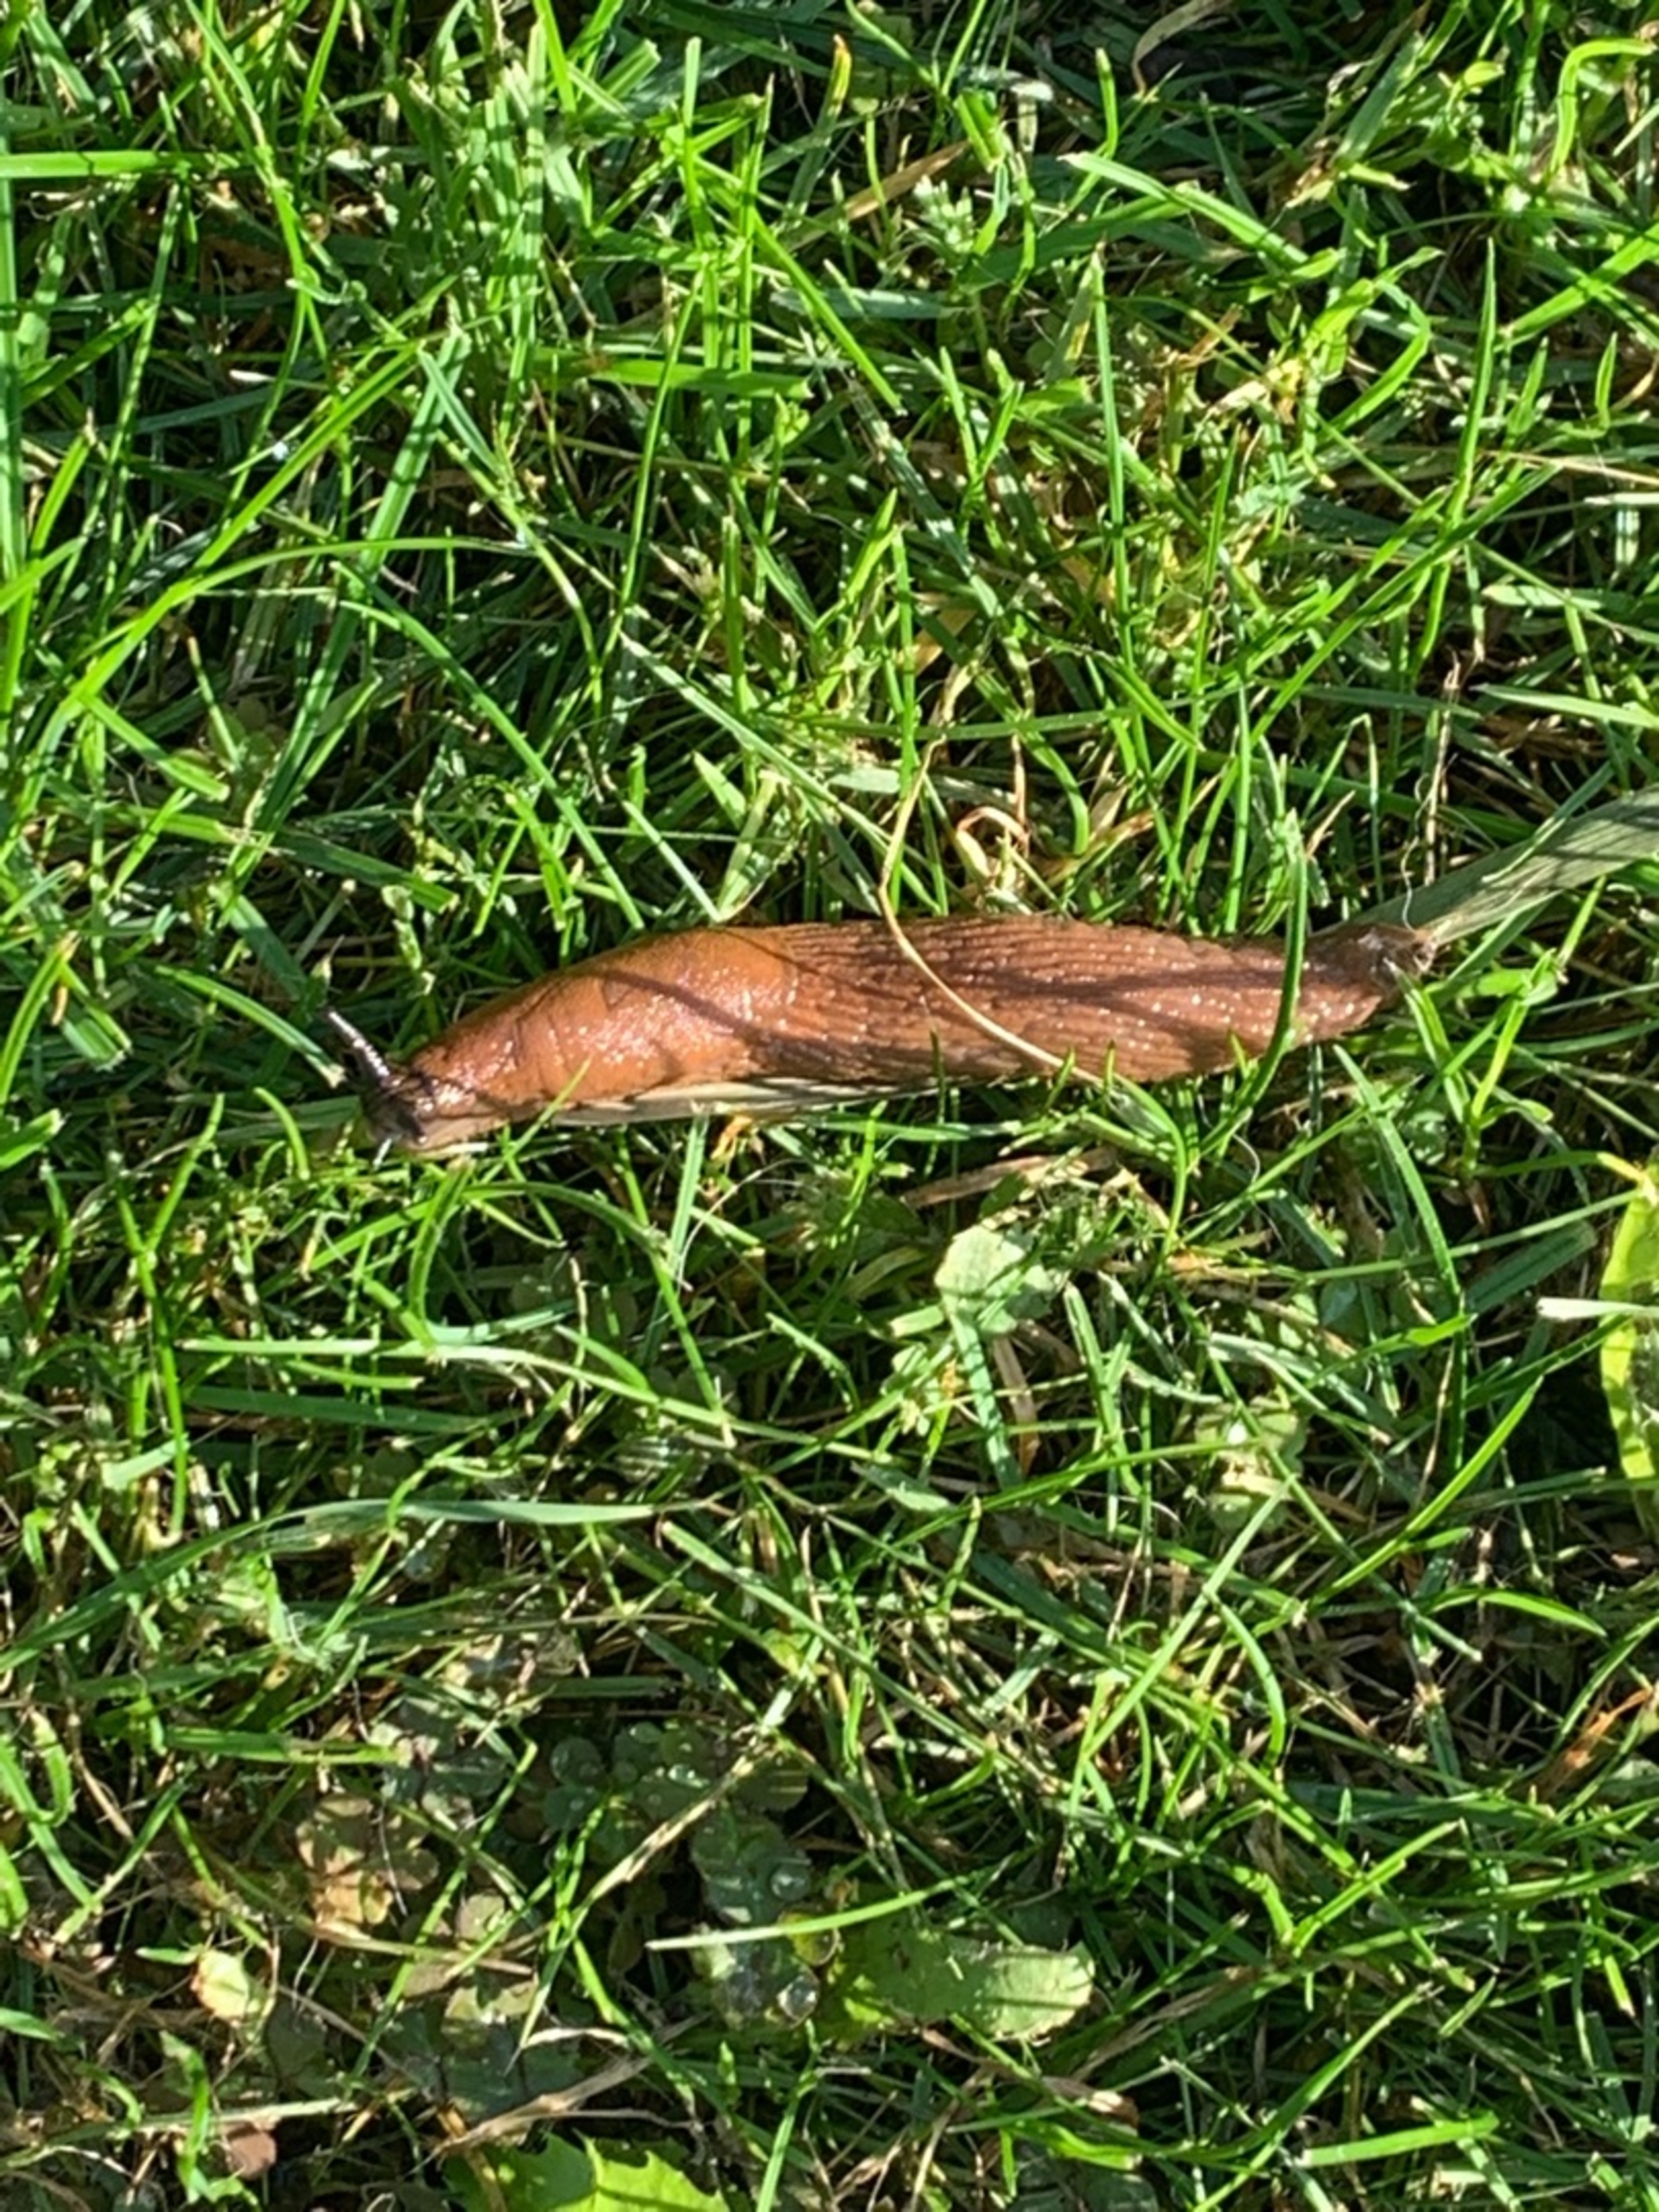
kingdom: Animalia
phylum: Mollusca
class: Gastropoda
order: Stylommatophora
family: Arionidae
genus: Arion
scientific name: Arion vulgaris
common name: Iberisk skovsnegl
